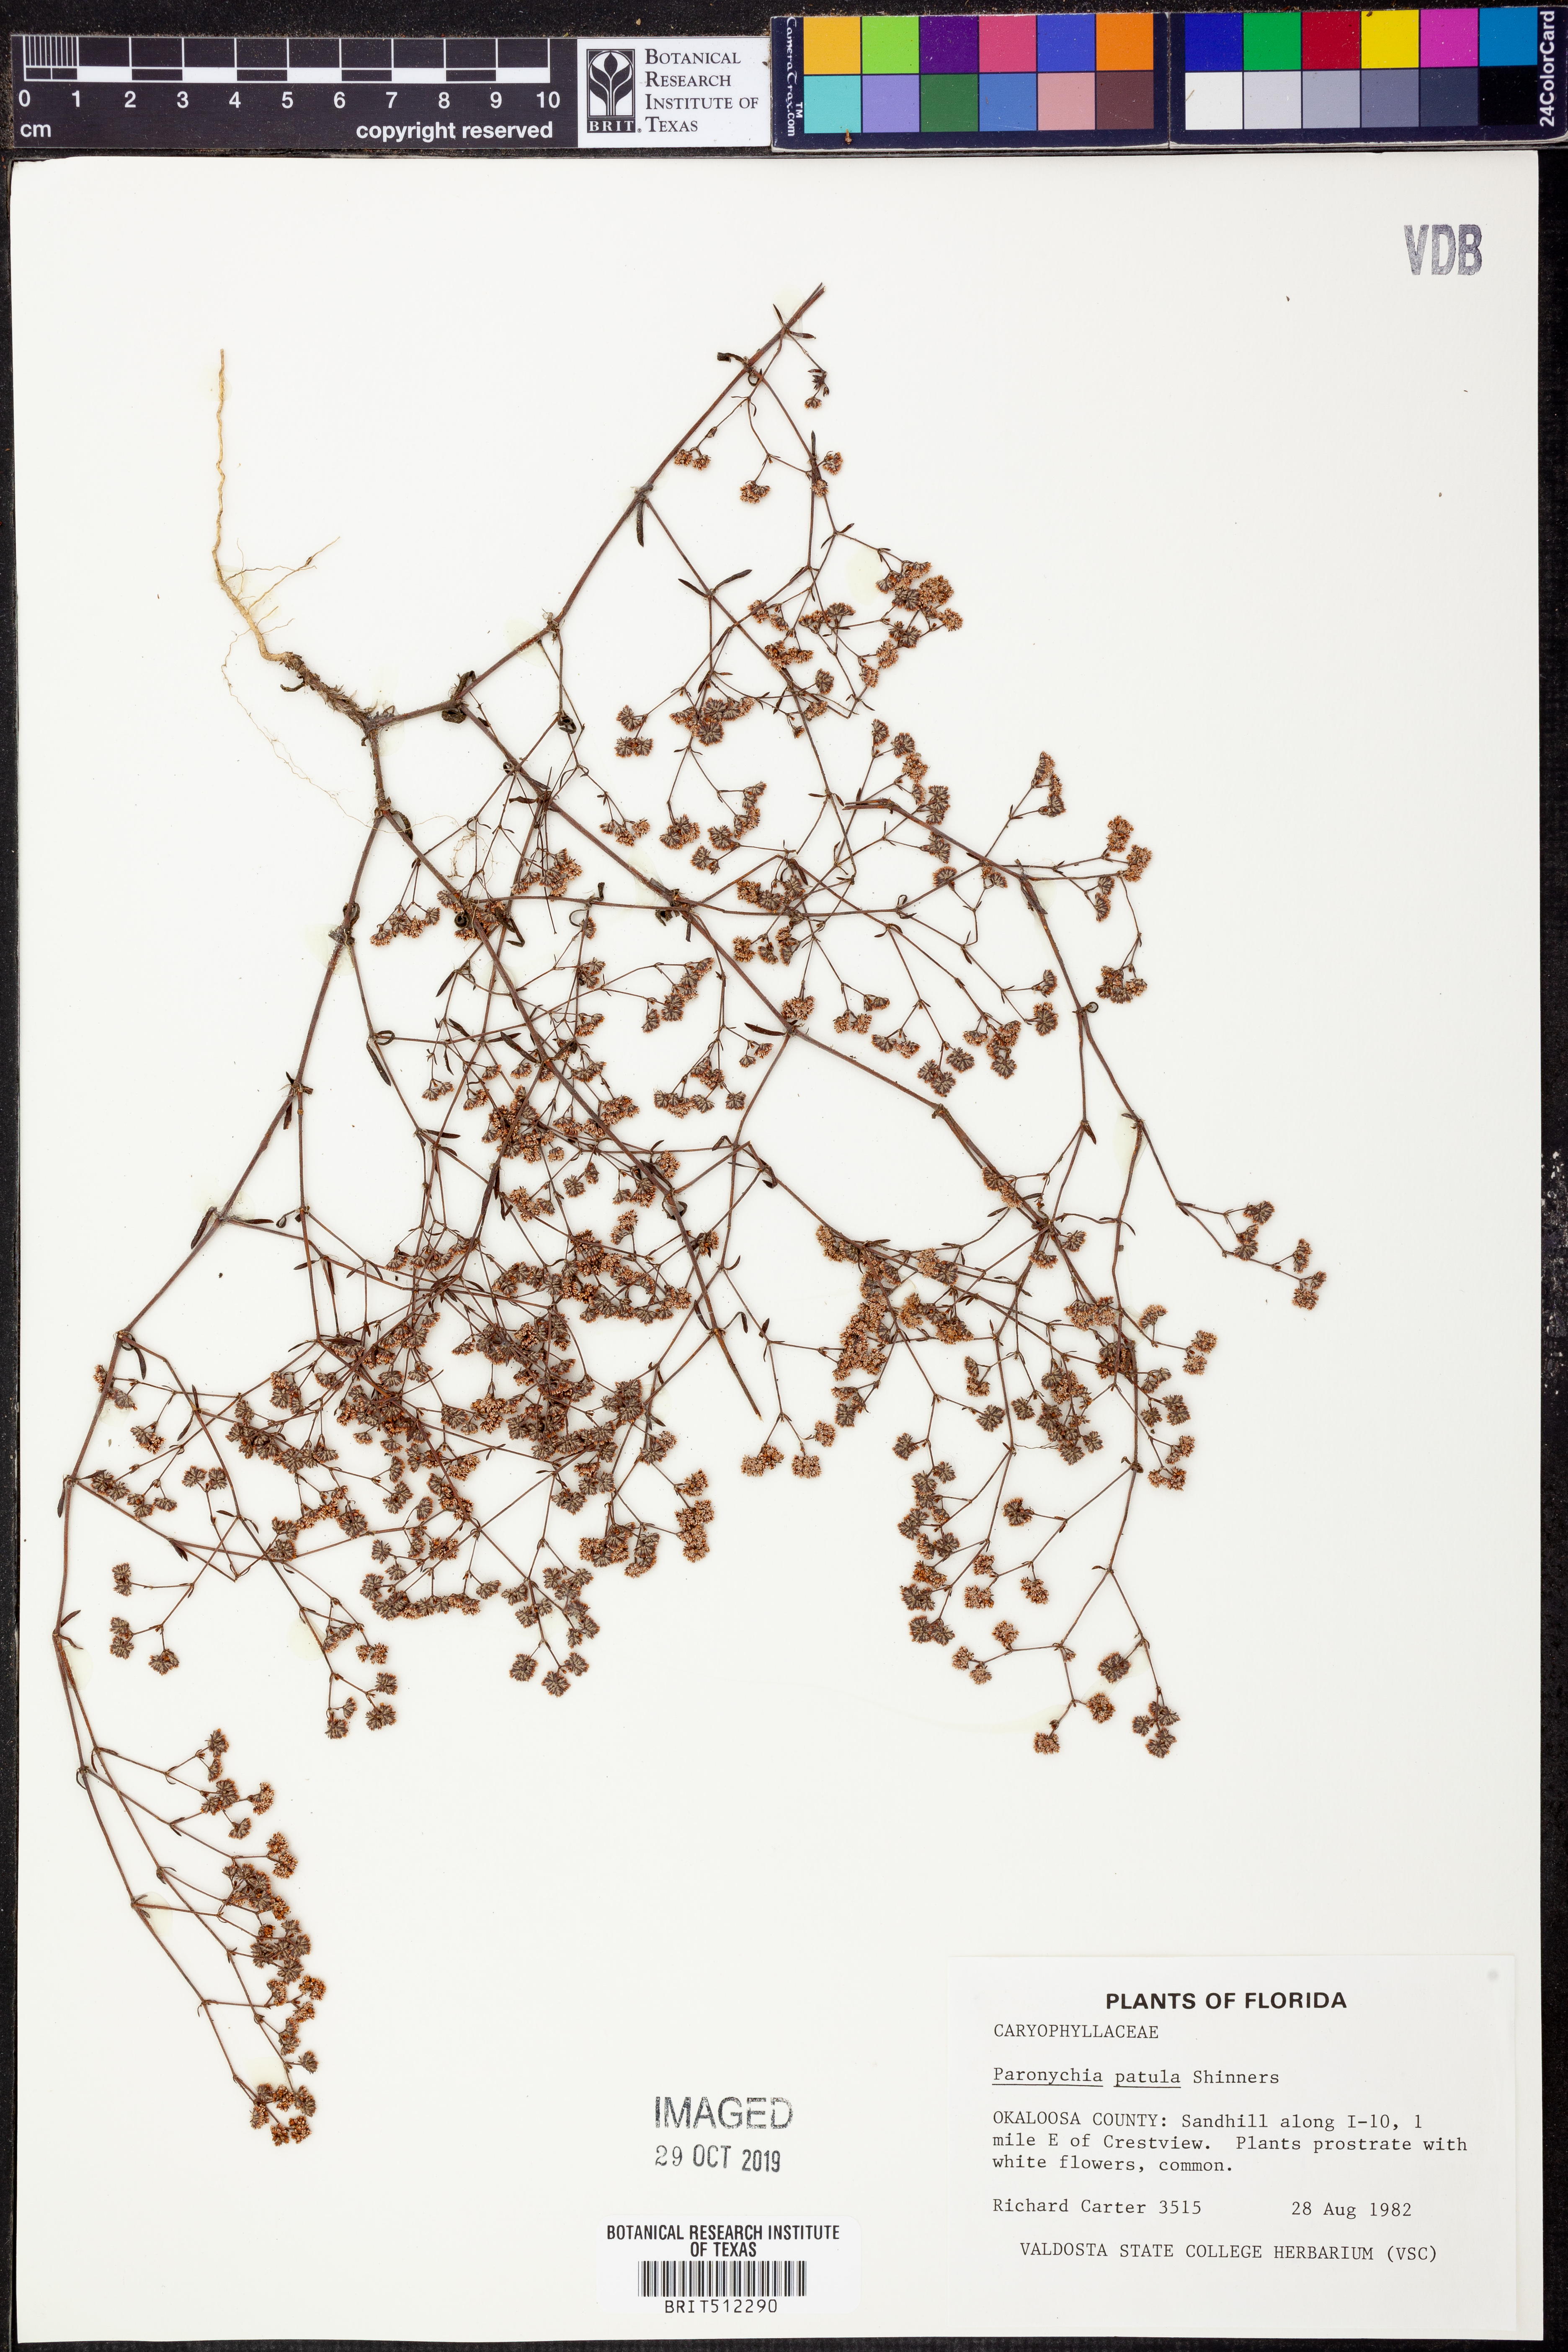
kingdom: Plantae
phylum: Tracheophyta
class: Magnoliopsida
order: Caryophyllales
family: Caryophyllaceae
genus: Paronychia
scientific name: Paronychia patula
